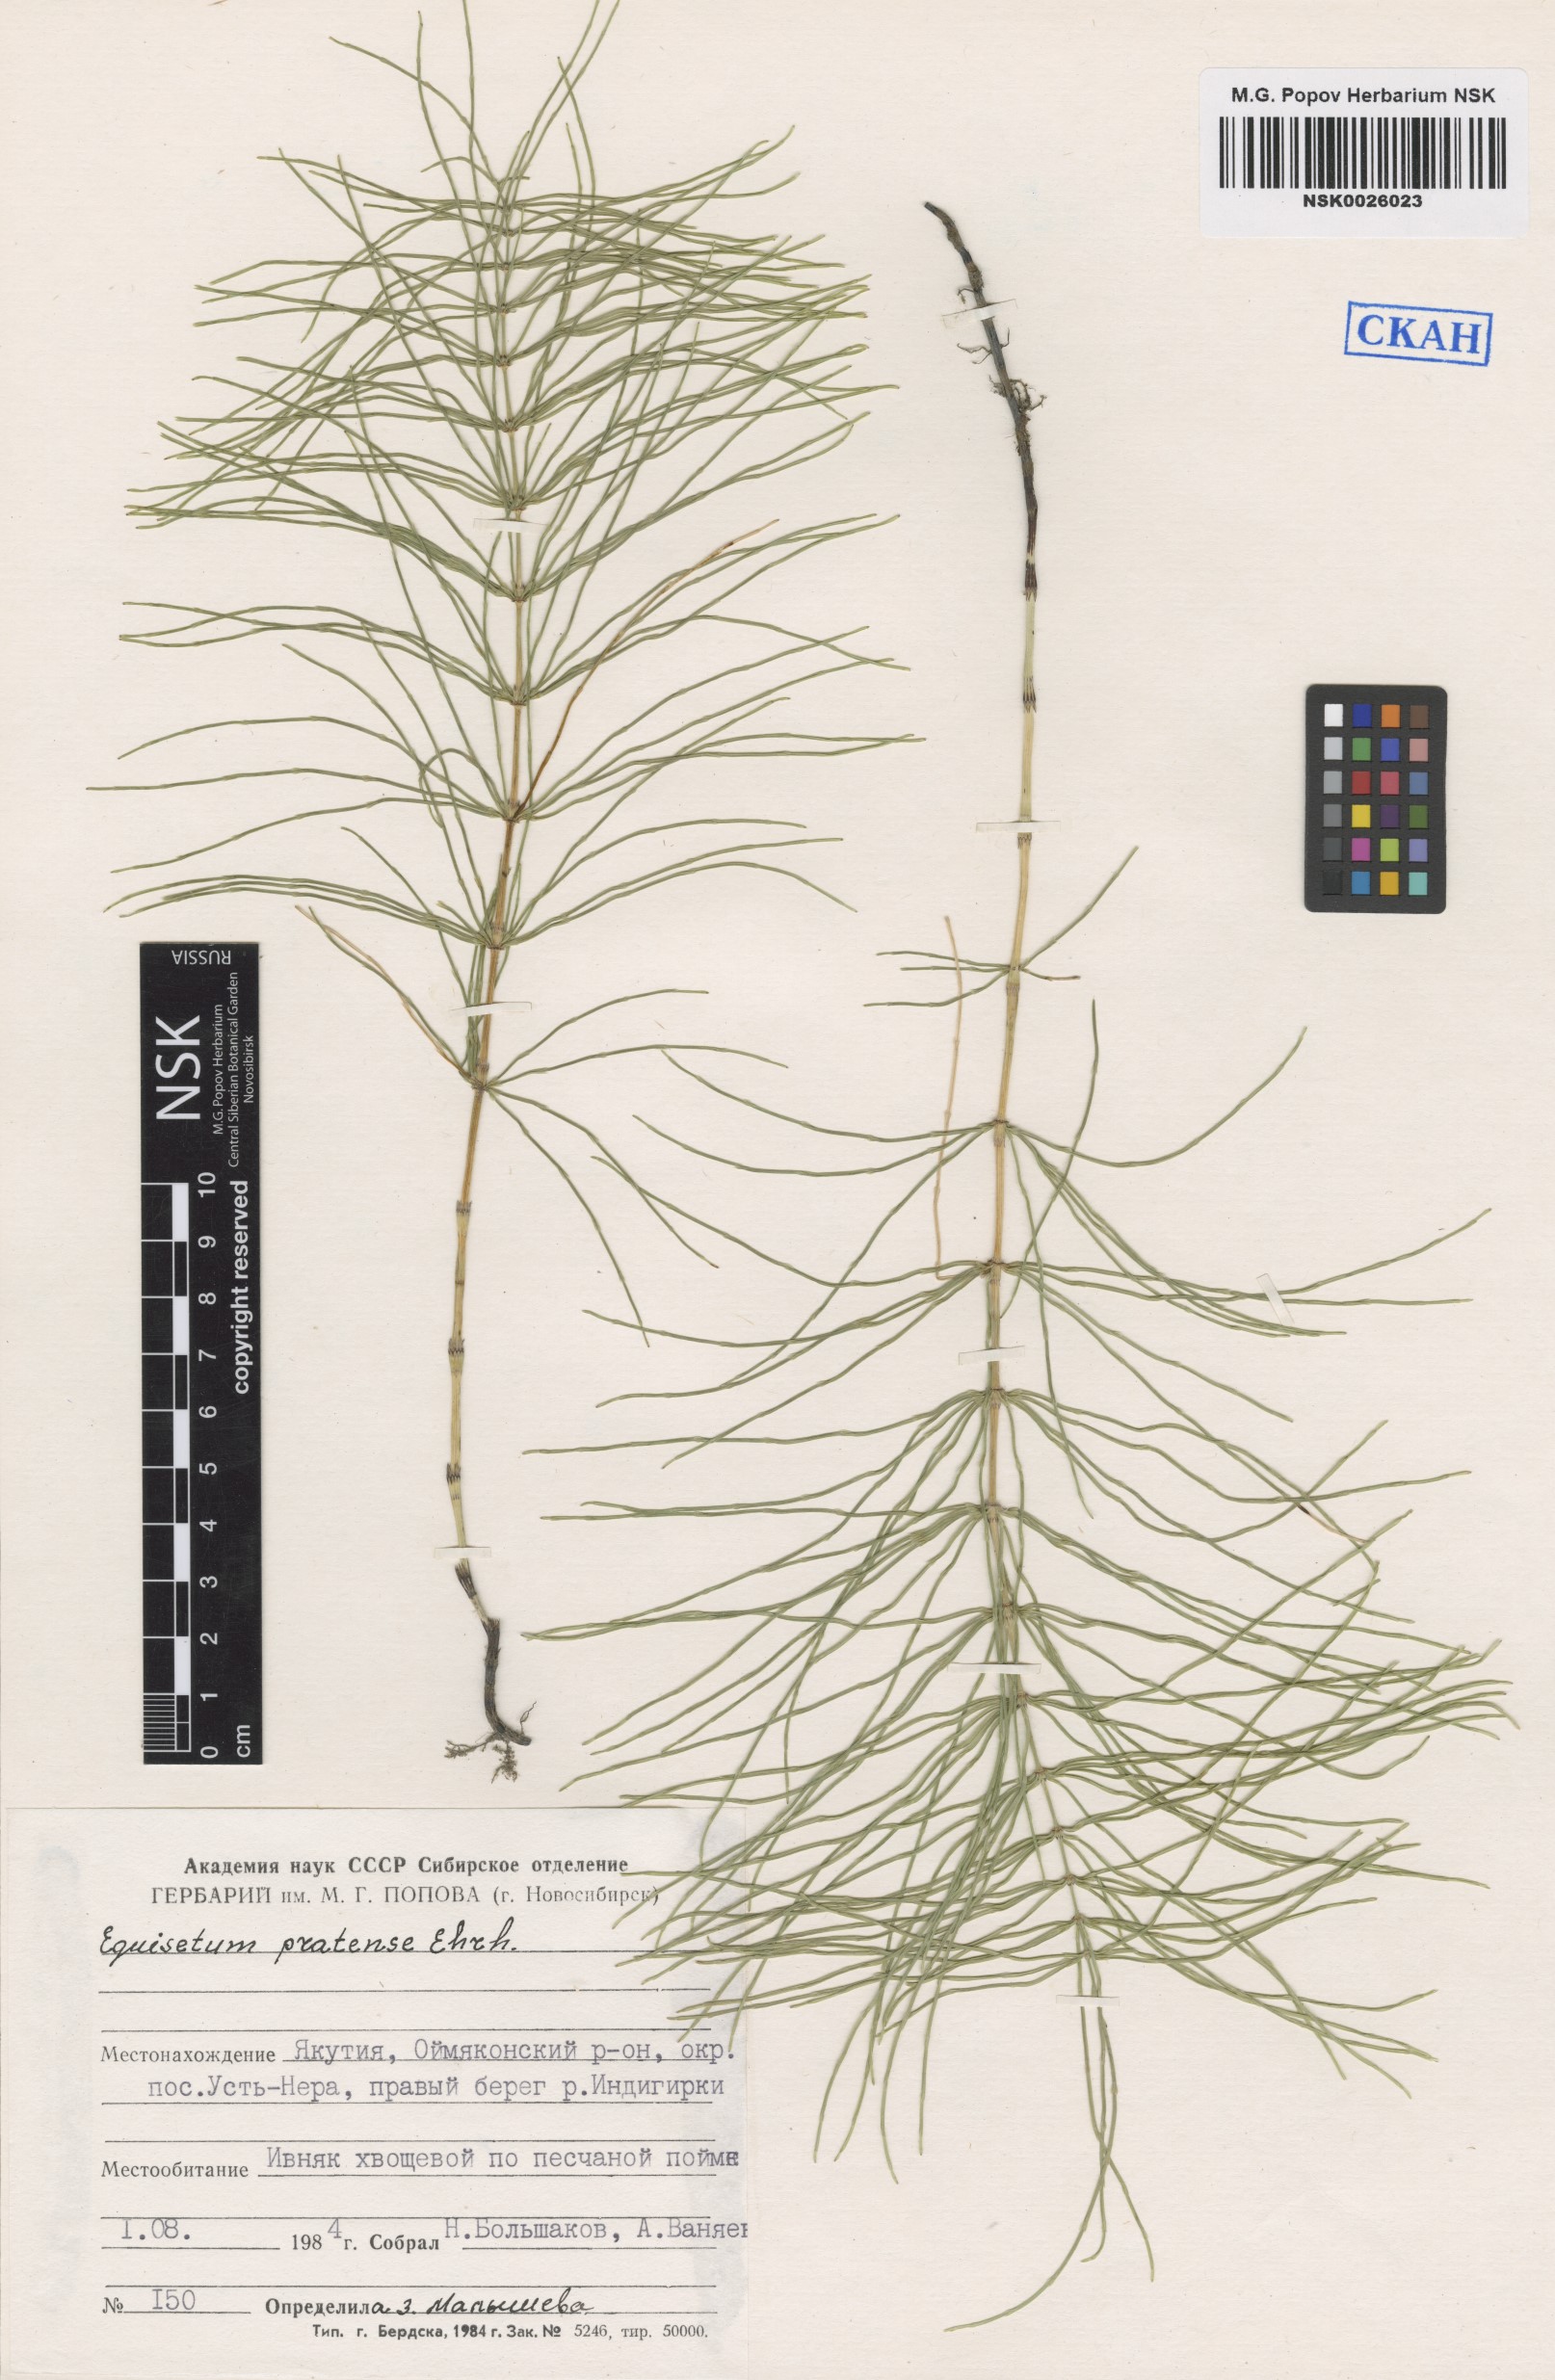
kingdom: Plantae
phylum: Tracheophyta
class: Polypodiopsida
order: Equisetales
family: Equisetaceae
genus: Equisetum
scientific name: Equisetum pratense
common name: Meadow horsetail
